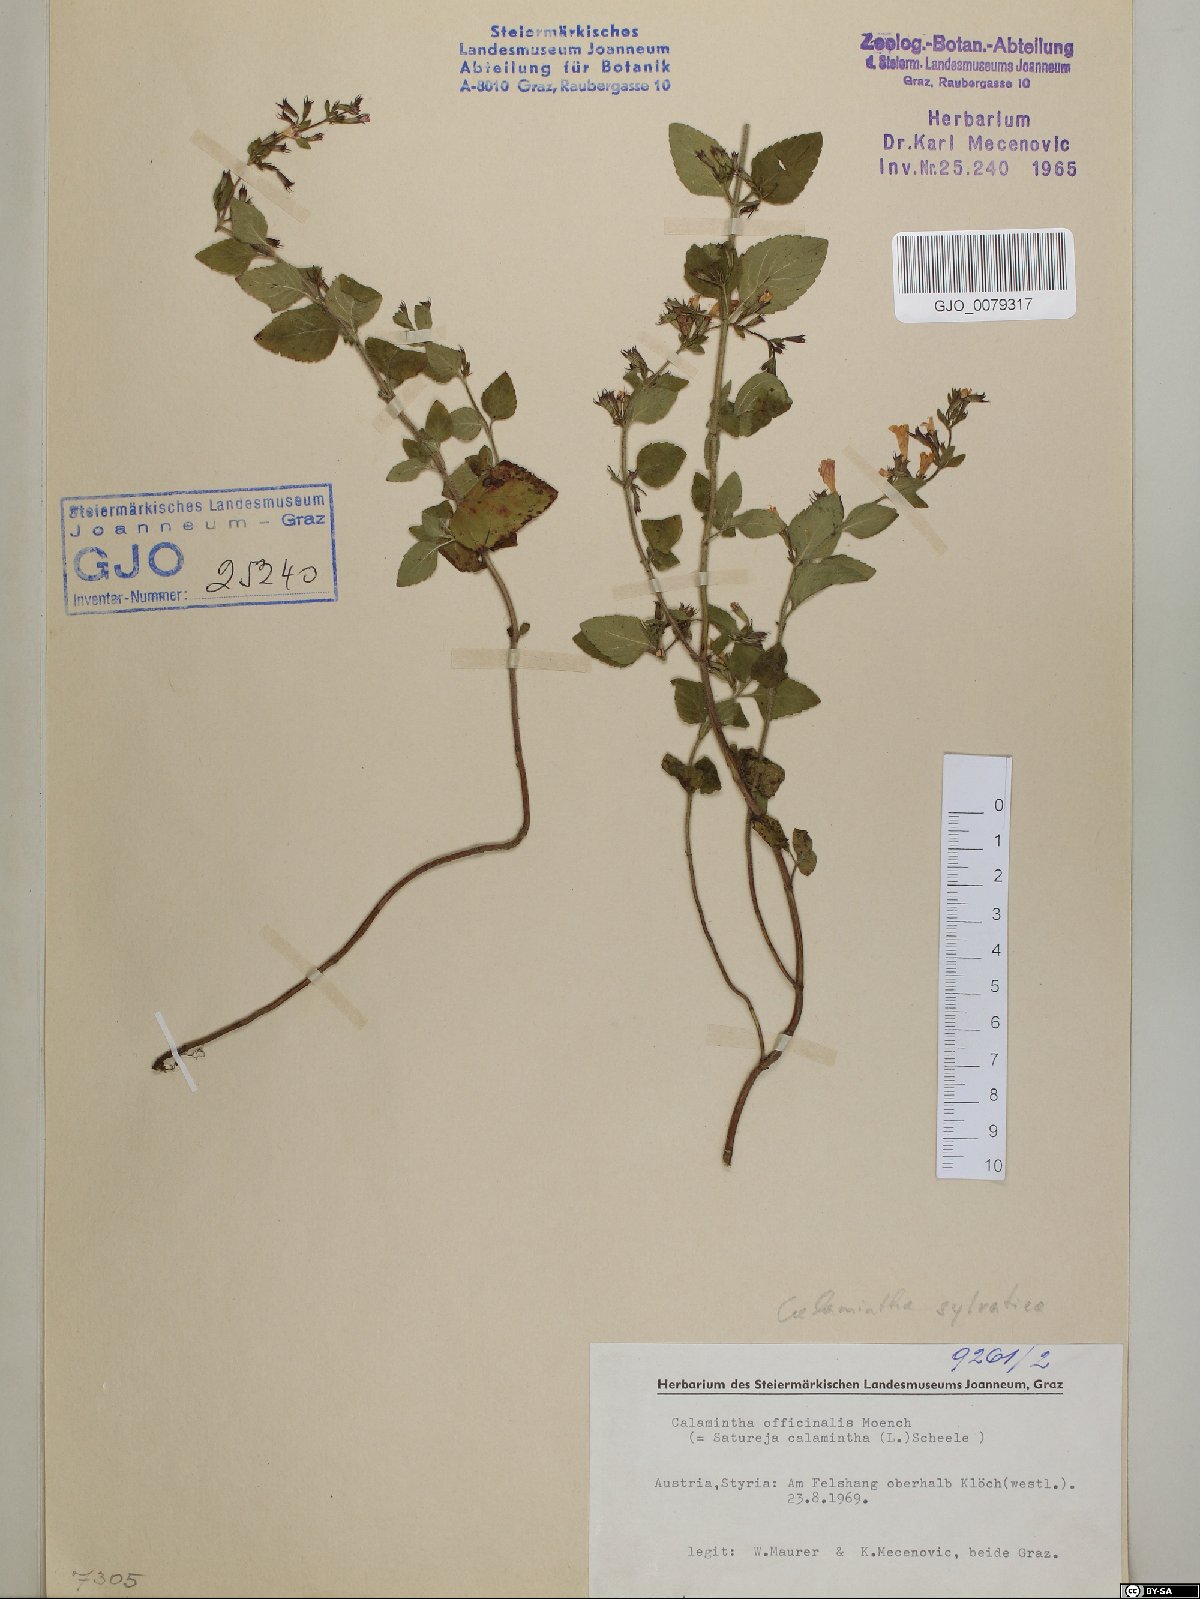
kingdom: Plantae
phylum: Tracheophyta
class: Magnoliopsida
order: Lamiales
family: Lamiaceae
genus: Clinopodium
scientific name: Clinopodium nepeta
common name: Lesser calamint
